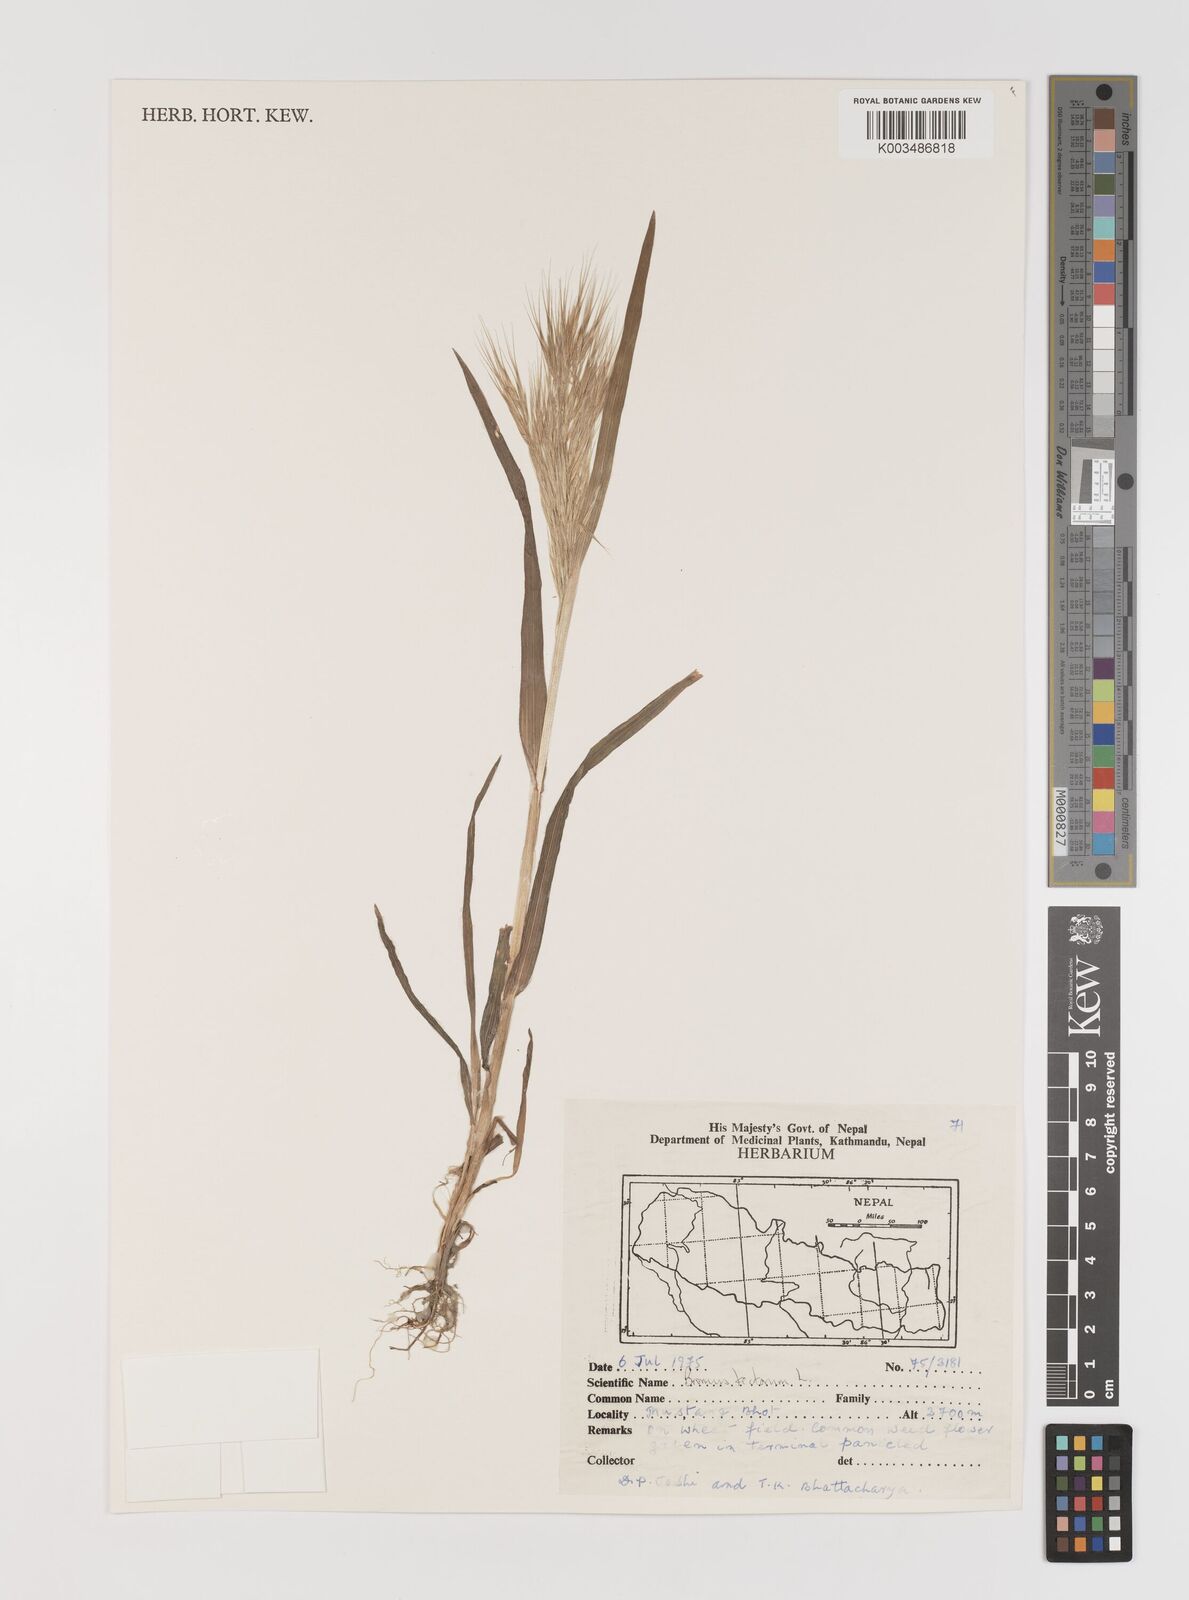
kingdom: Plantae
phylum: Tracheophyta
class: Liliopsida
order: Poales
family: Poaceae
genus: Bromus
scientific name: Bromus tectorum
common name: Cheatgrass
